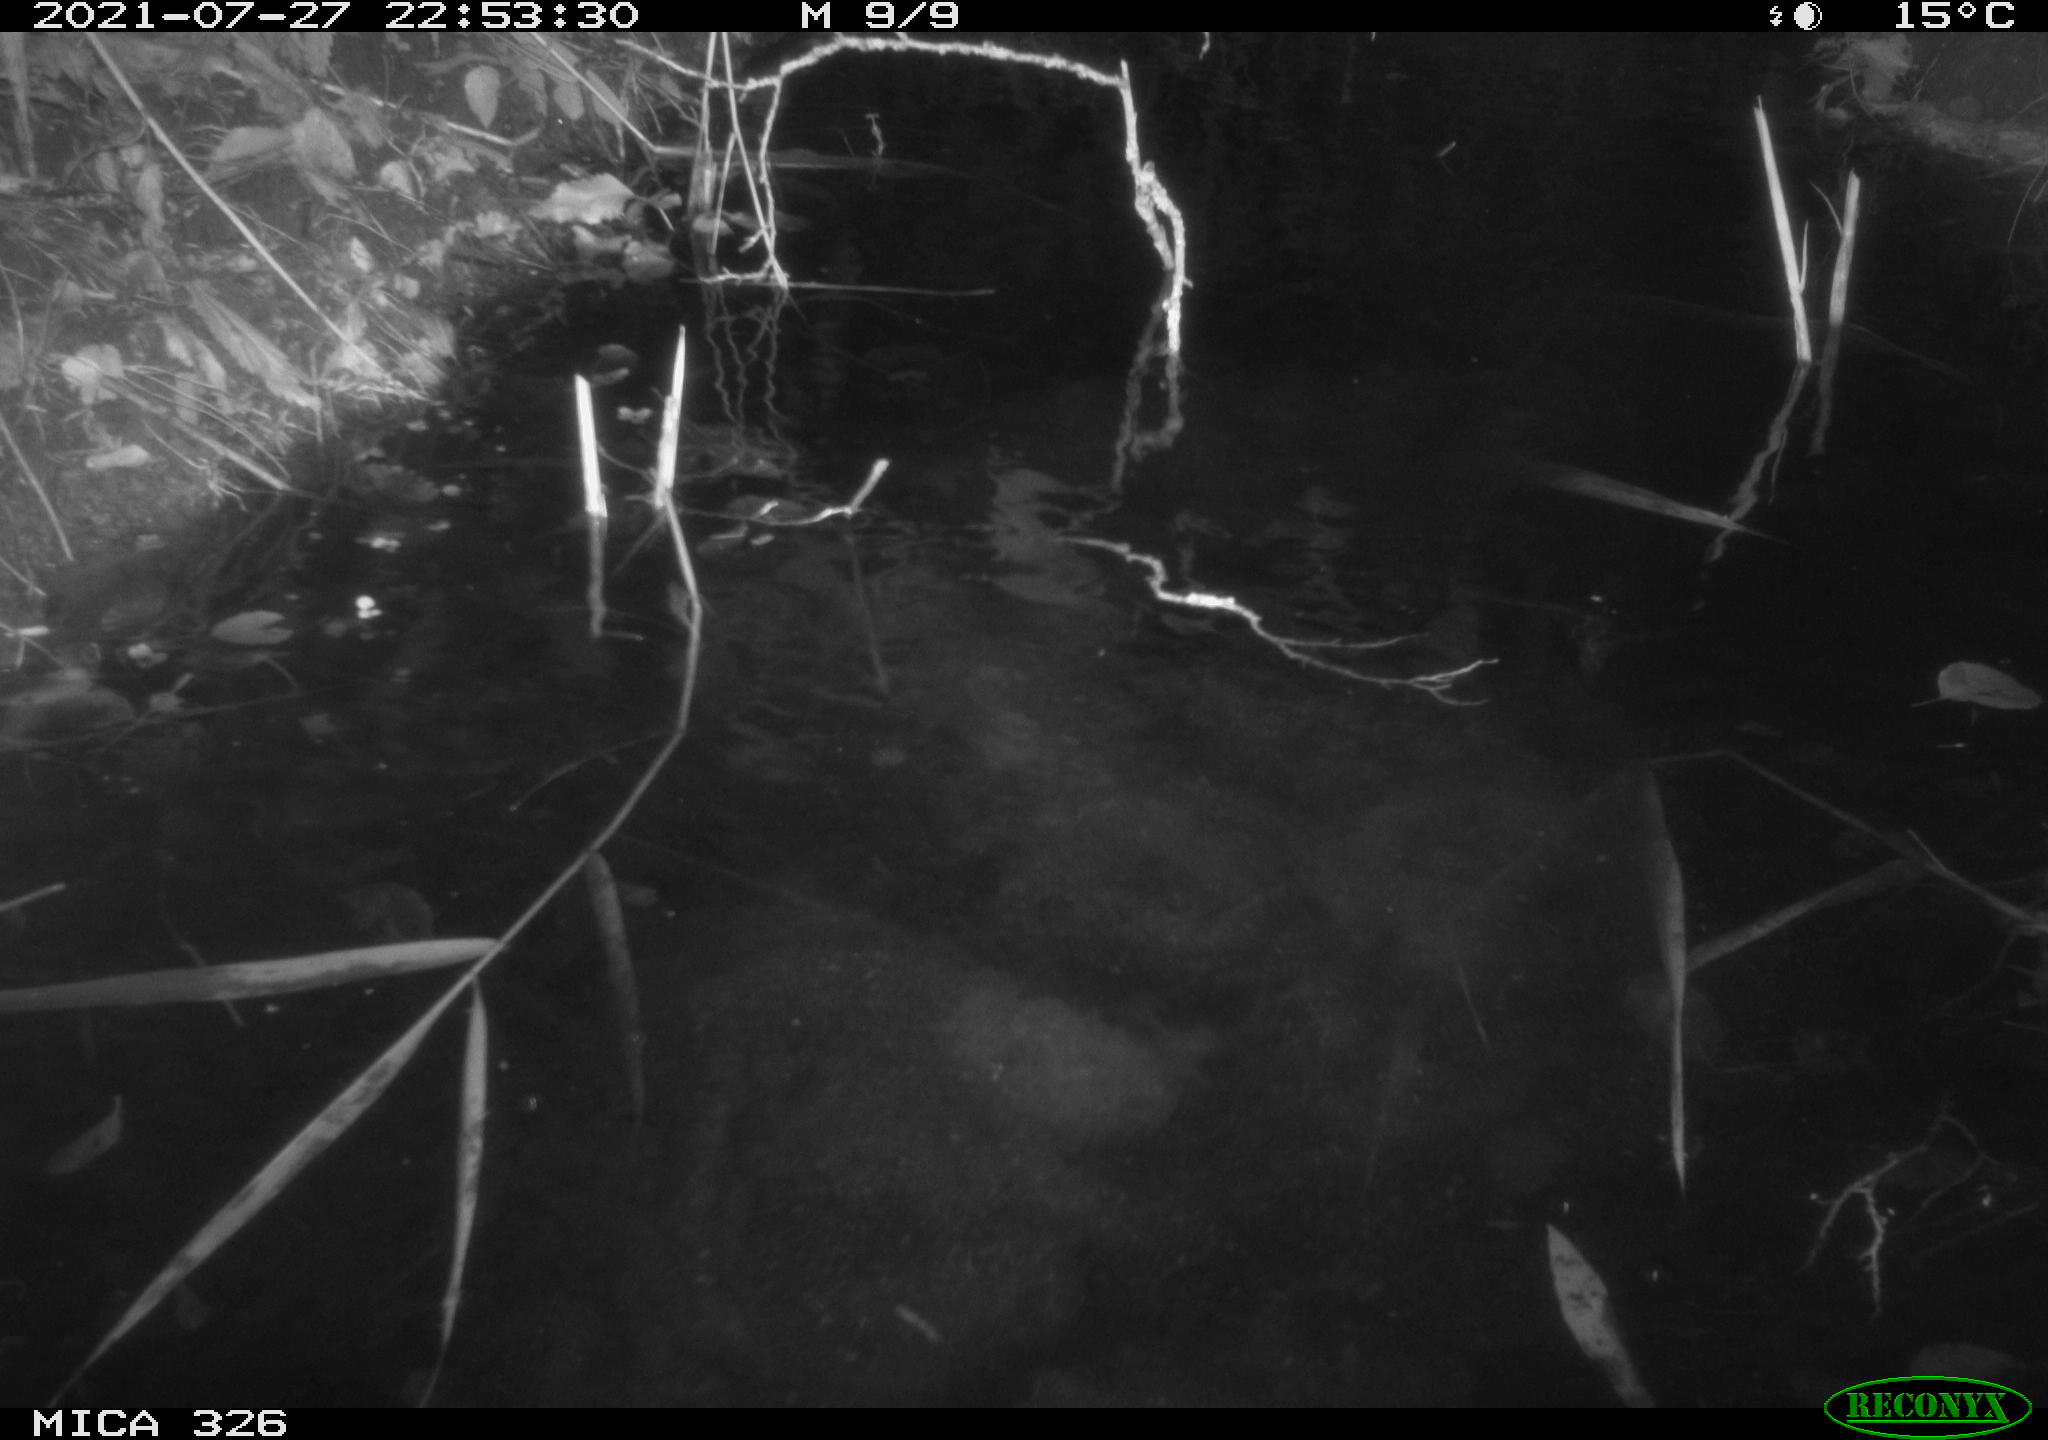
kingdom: Animalia
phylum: Chordata
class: Mammalia
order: Rodentia
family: Myocastoridae
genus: Myocastor
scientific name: Myocastor coypus
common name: Coypu
